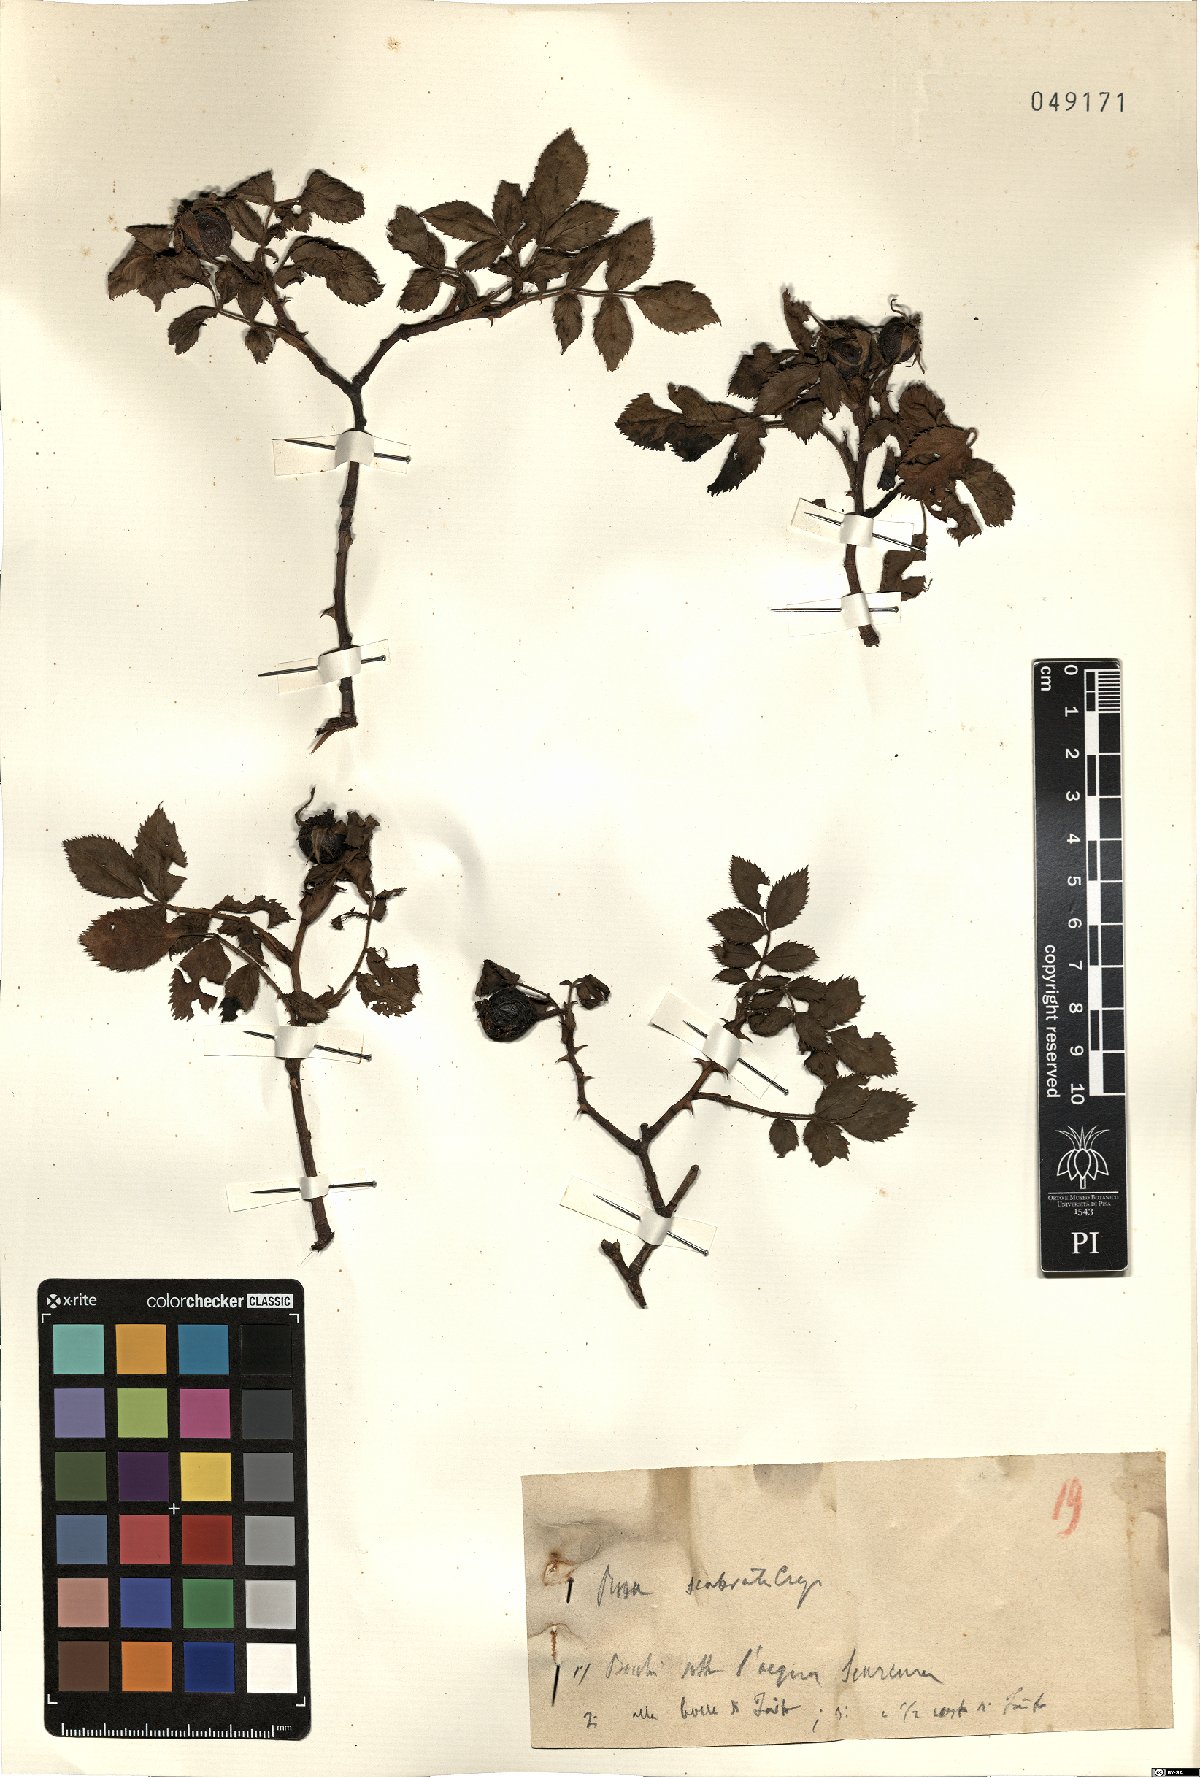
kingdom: Plantae
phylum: Tracheophyta
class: Magnoliopsida
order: Rosales
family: Rosaceae
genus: Rosa
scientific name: Rosa
